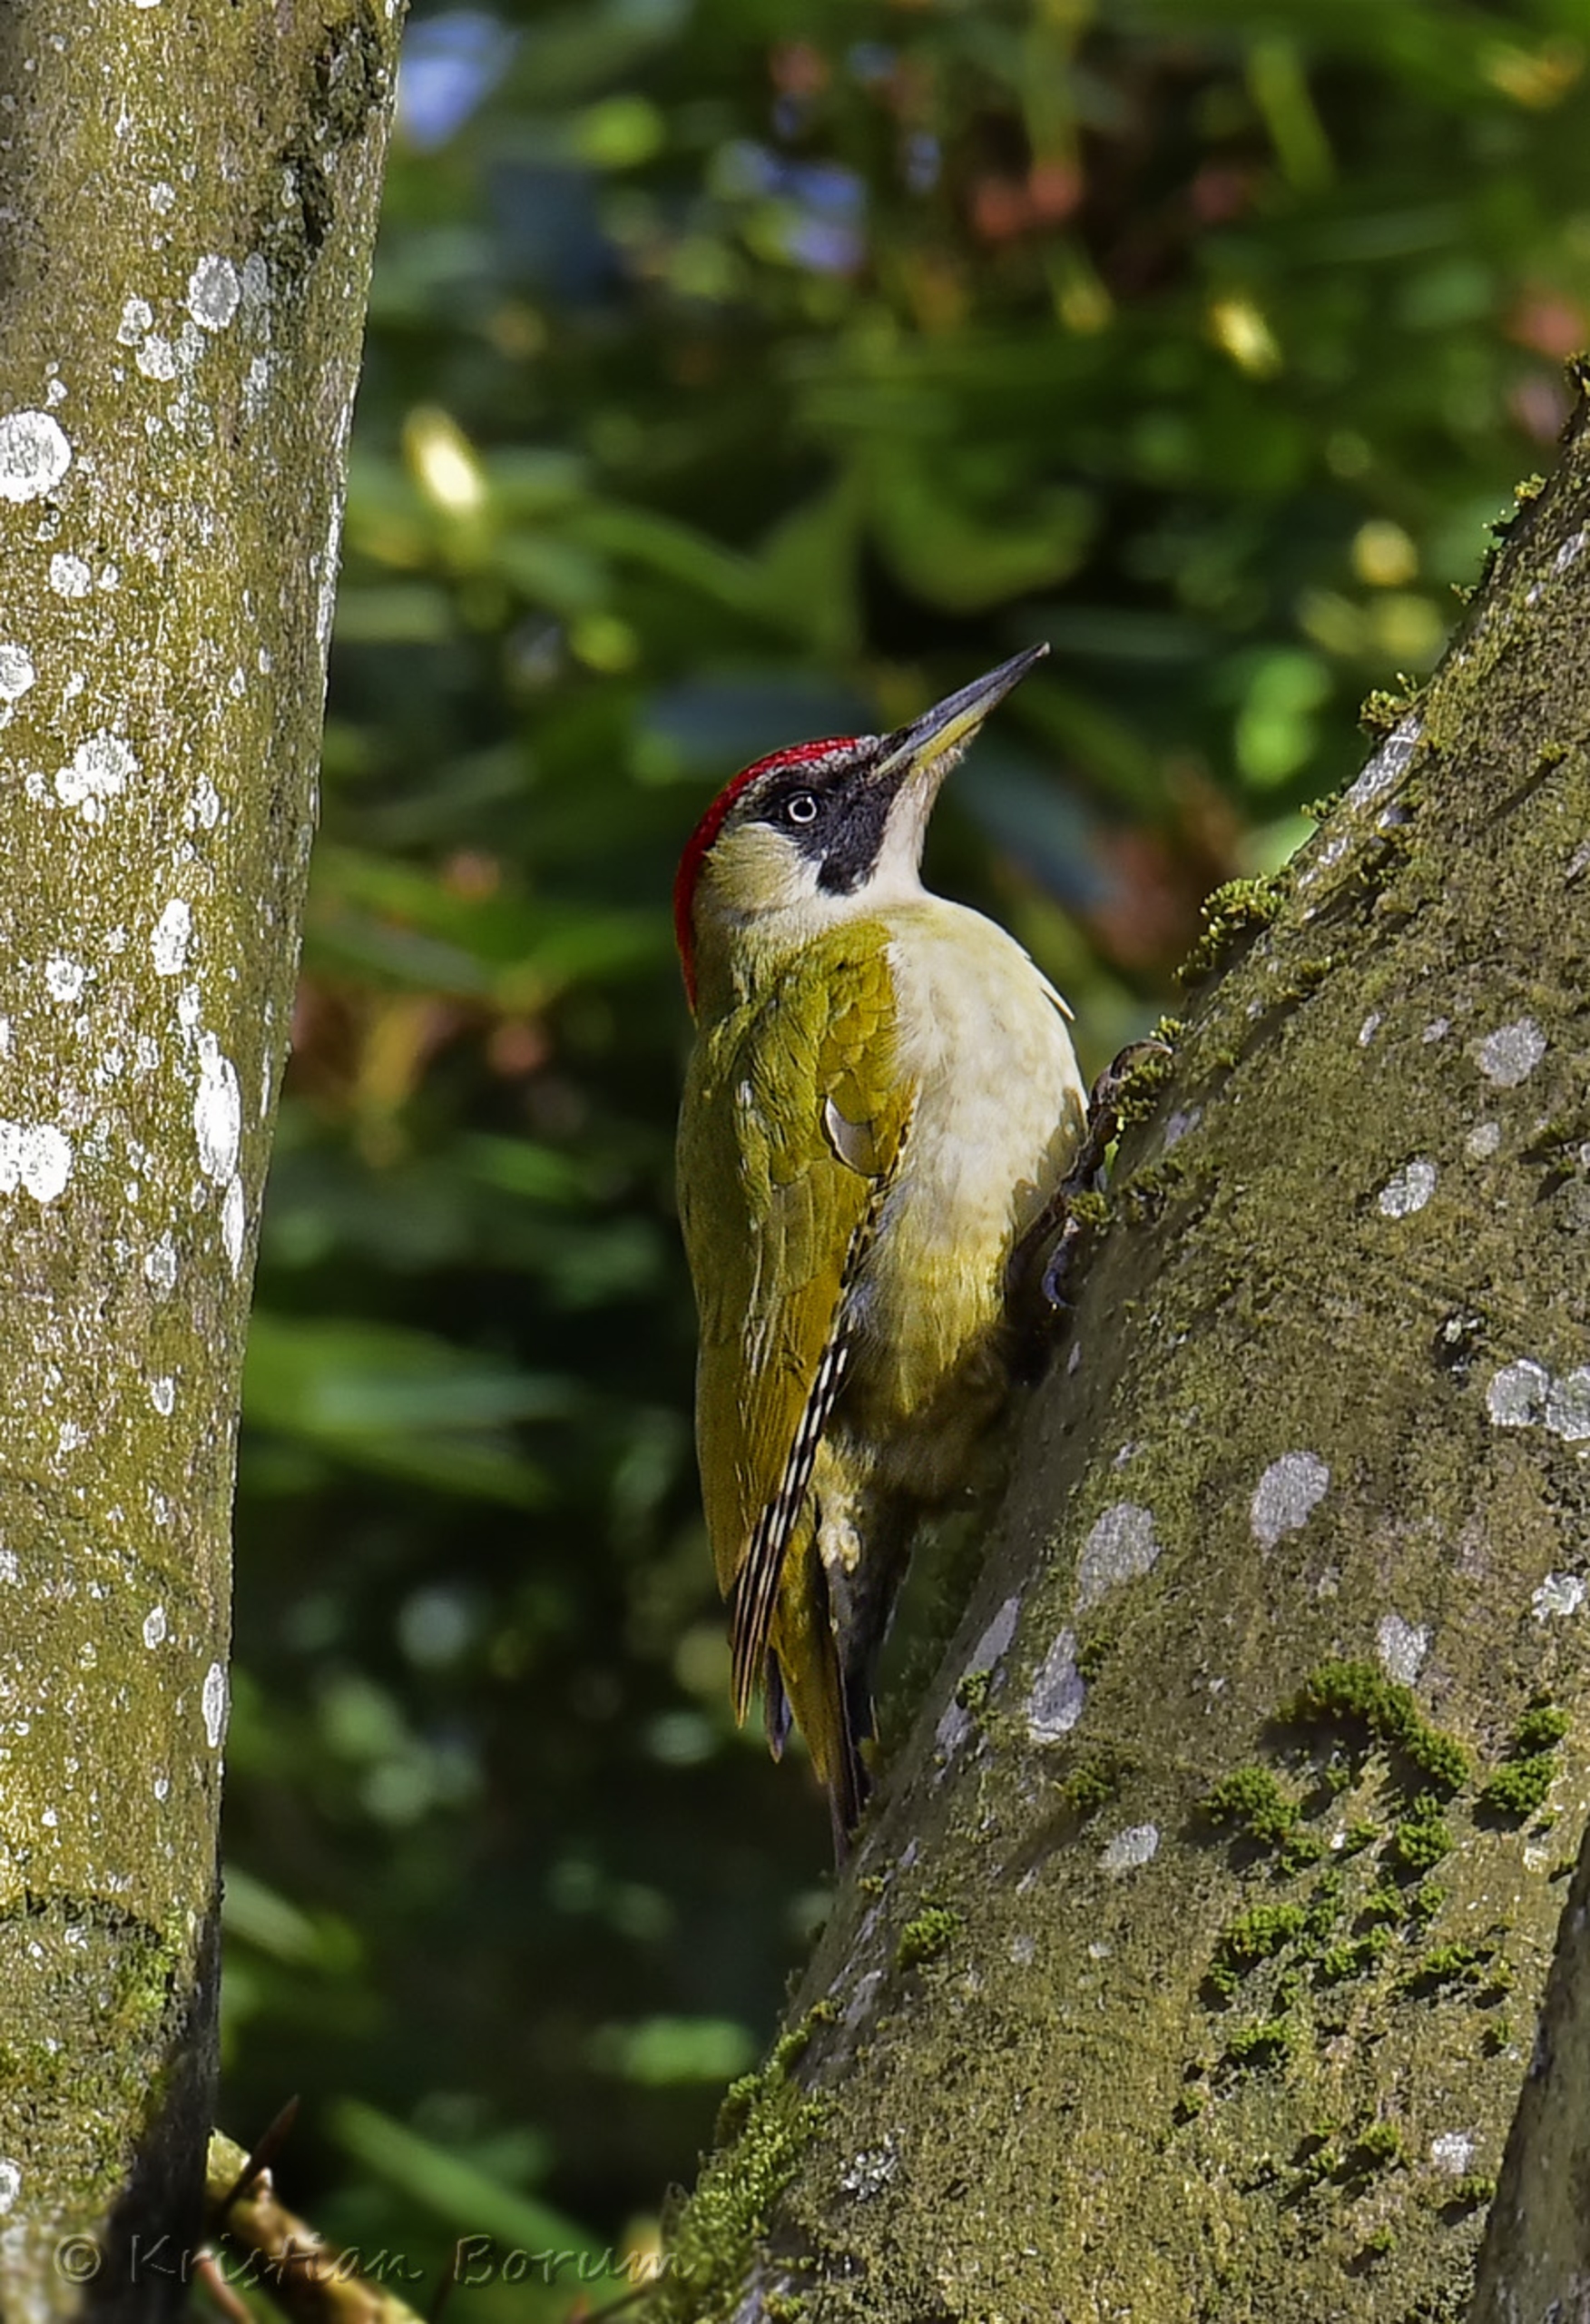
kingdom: Animalia
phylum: Chordata
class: Aves
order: Piciformes
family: Picidae
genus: Picus
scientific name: Picus viridis
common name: Grønspætte
